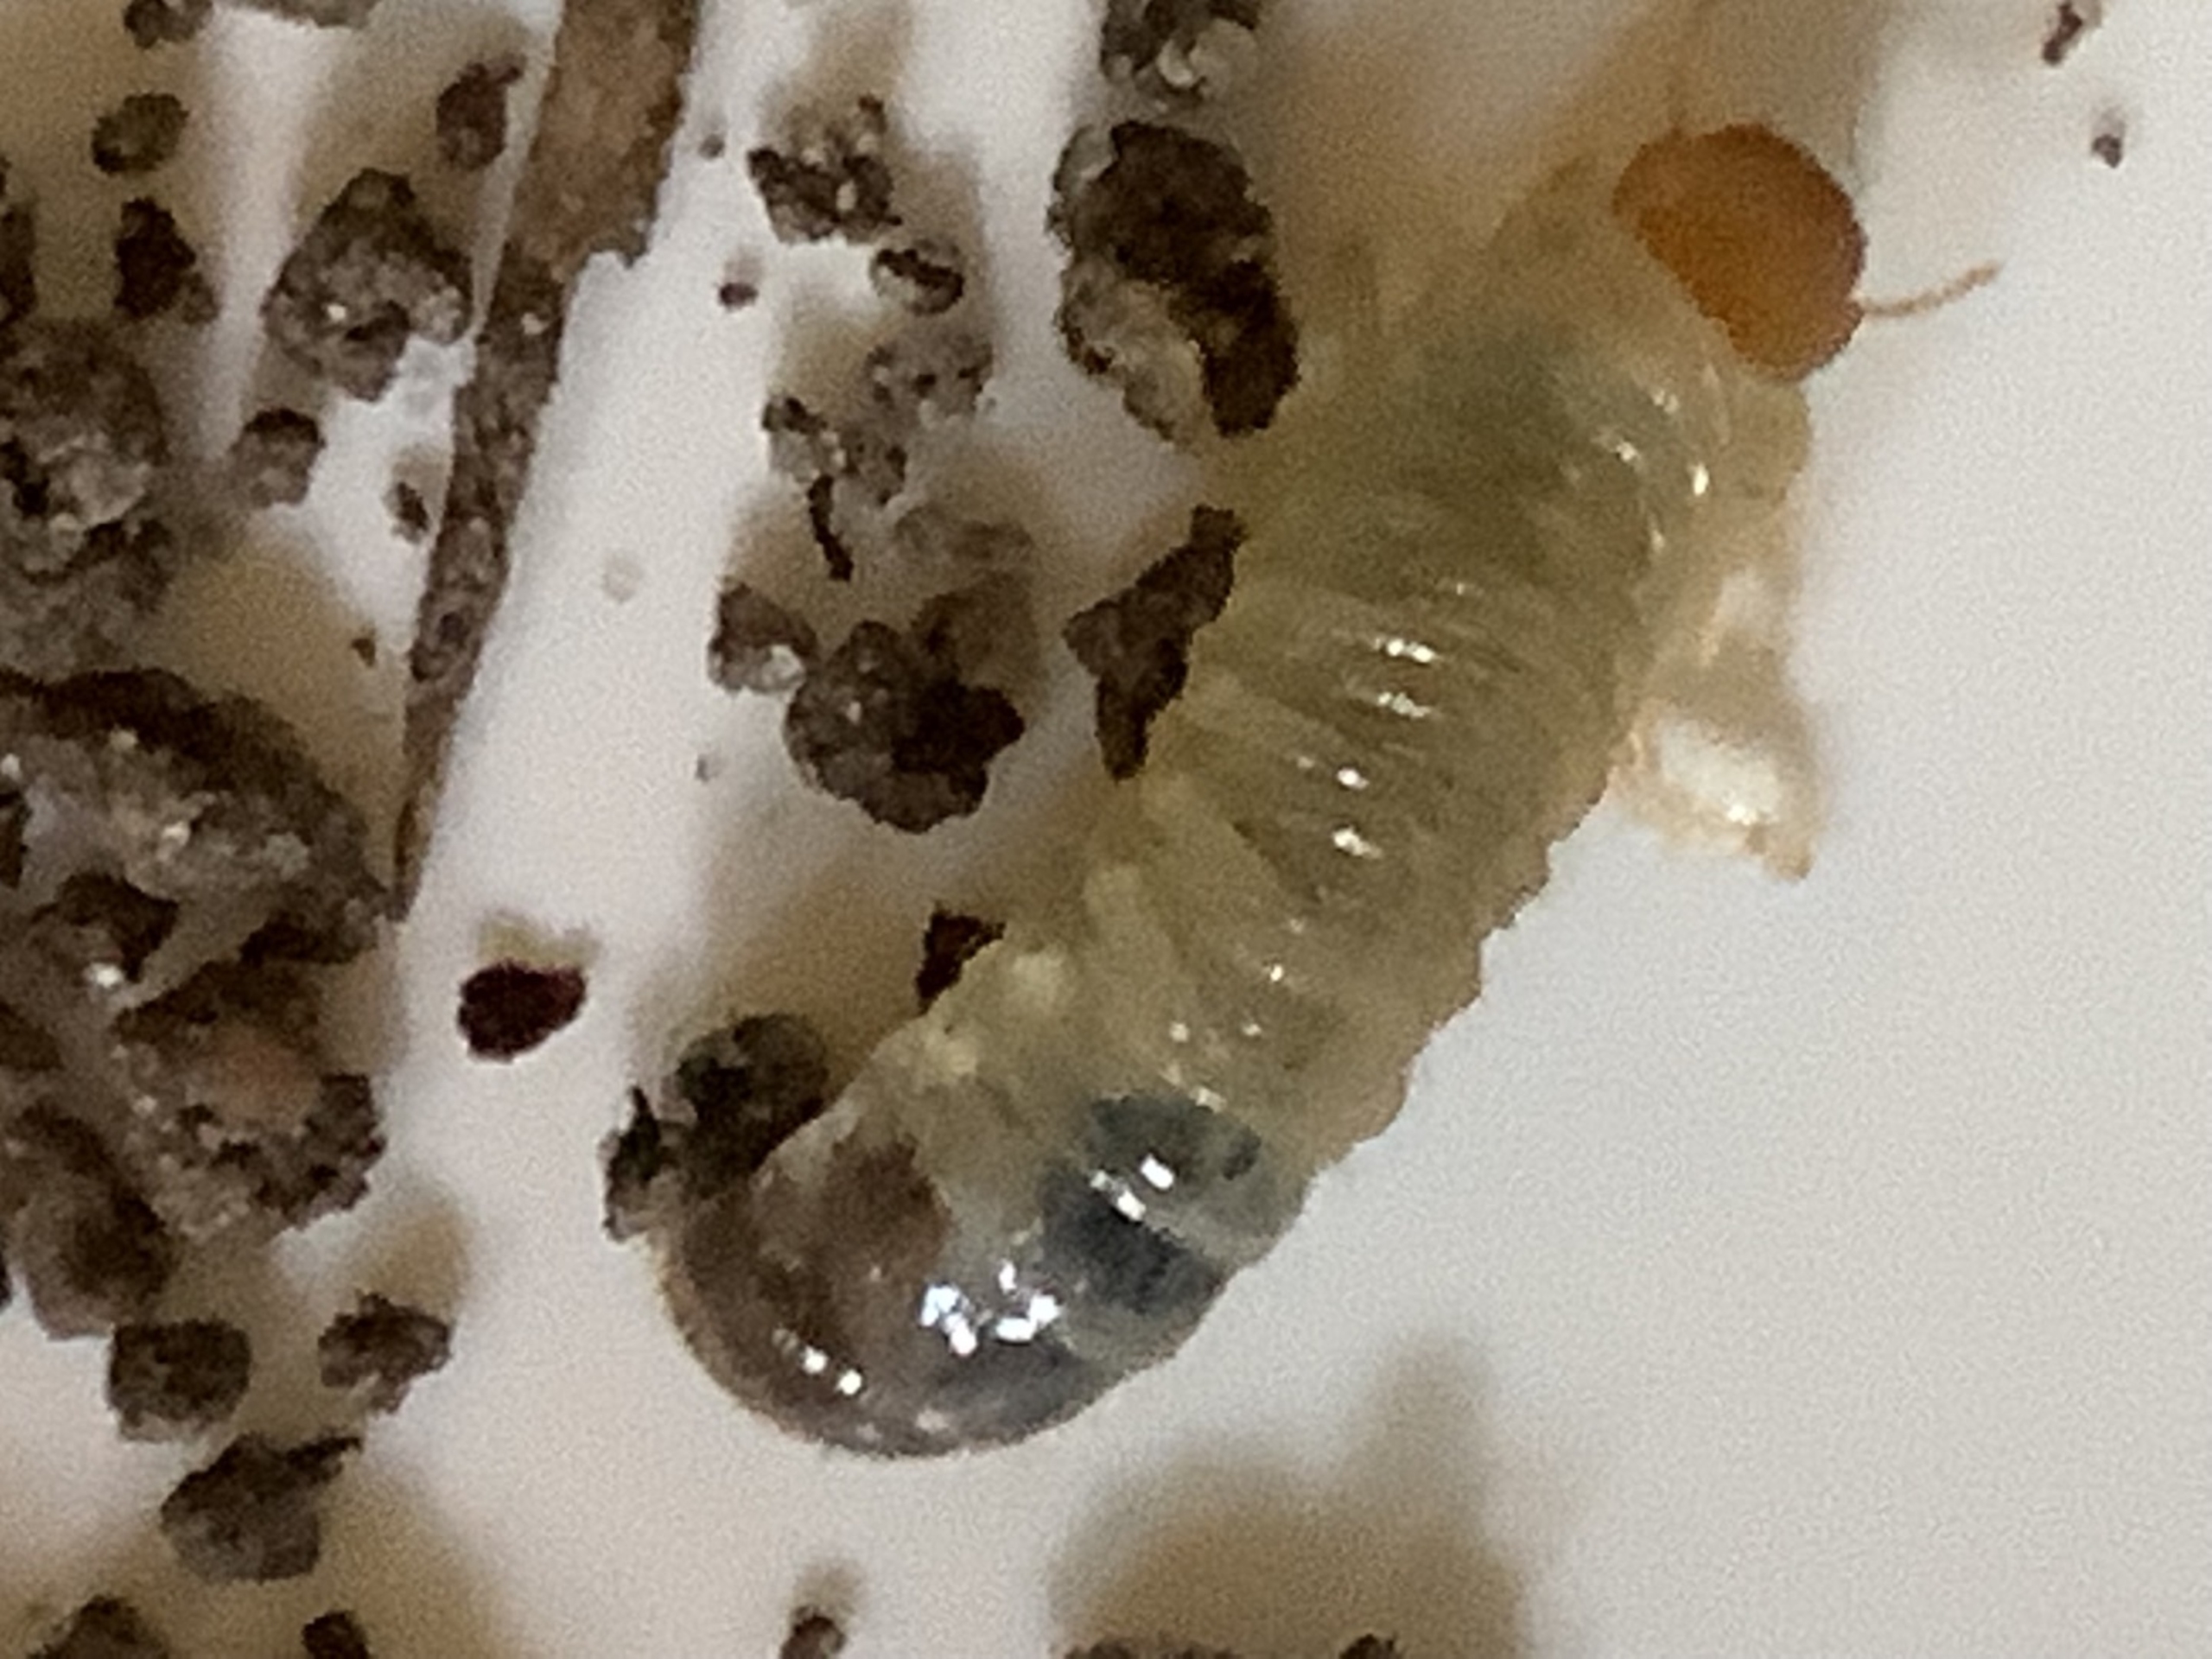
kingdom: Animalia
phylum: Arthropoda
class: Insecta
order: Coleoptera
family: Scarabaeidae
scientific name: Scarabaeidae
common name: Torbister
